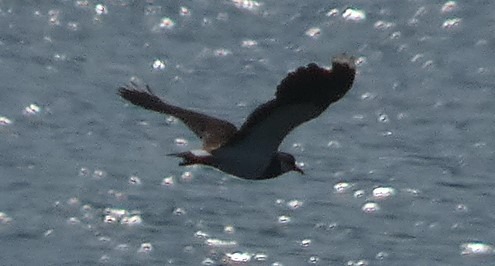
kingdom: Animalia
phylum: Chordata
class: Aves
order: Charadriiformes
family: Charadriidae
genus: Vanellus
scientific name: Vanellus vanellus
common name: Vibe
